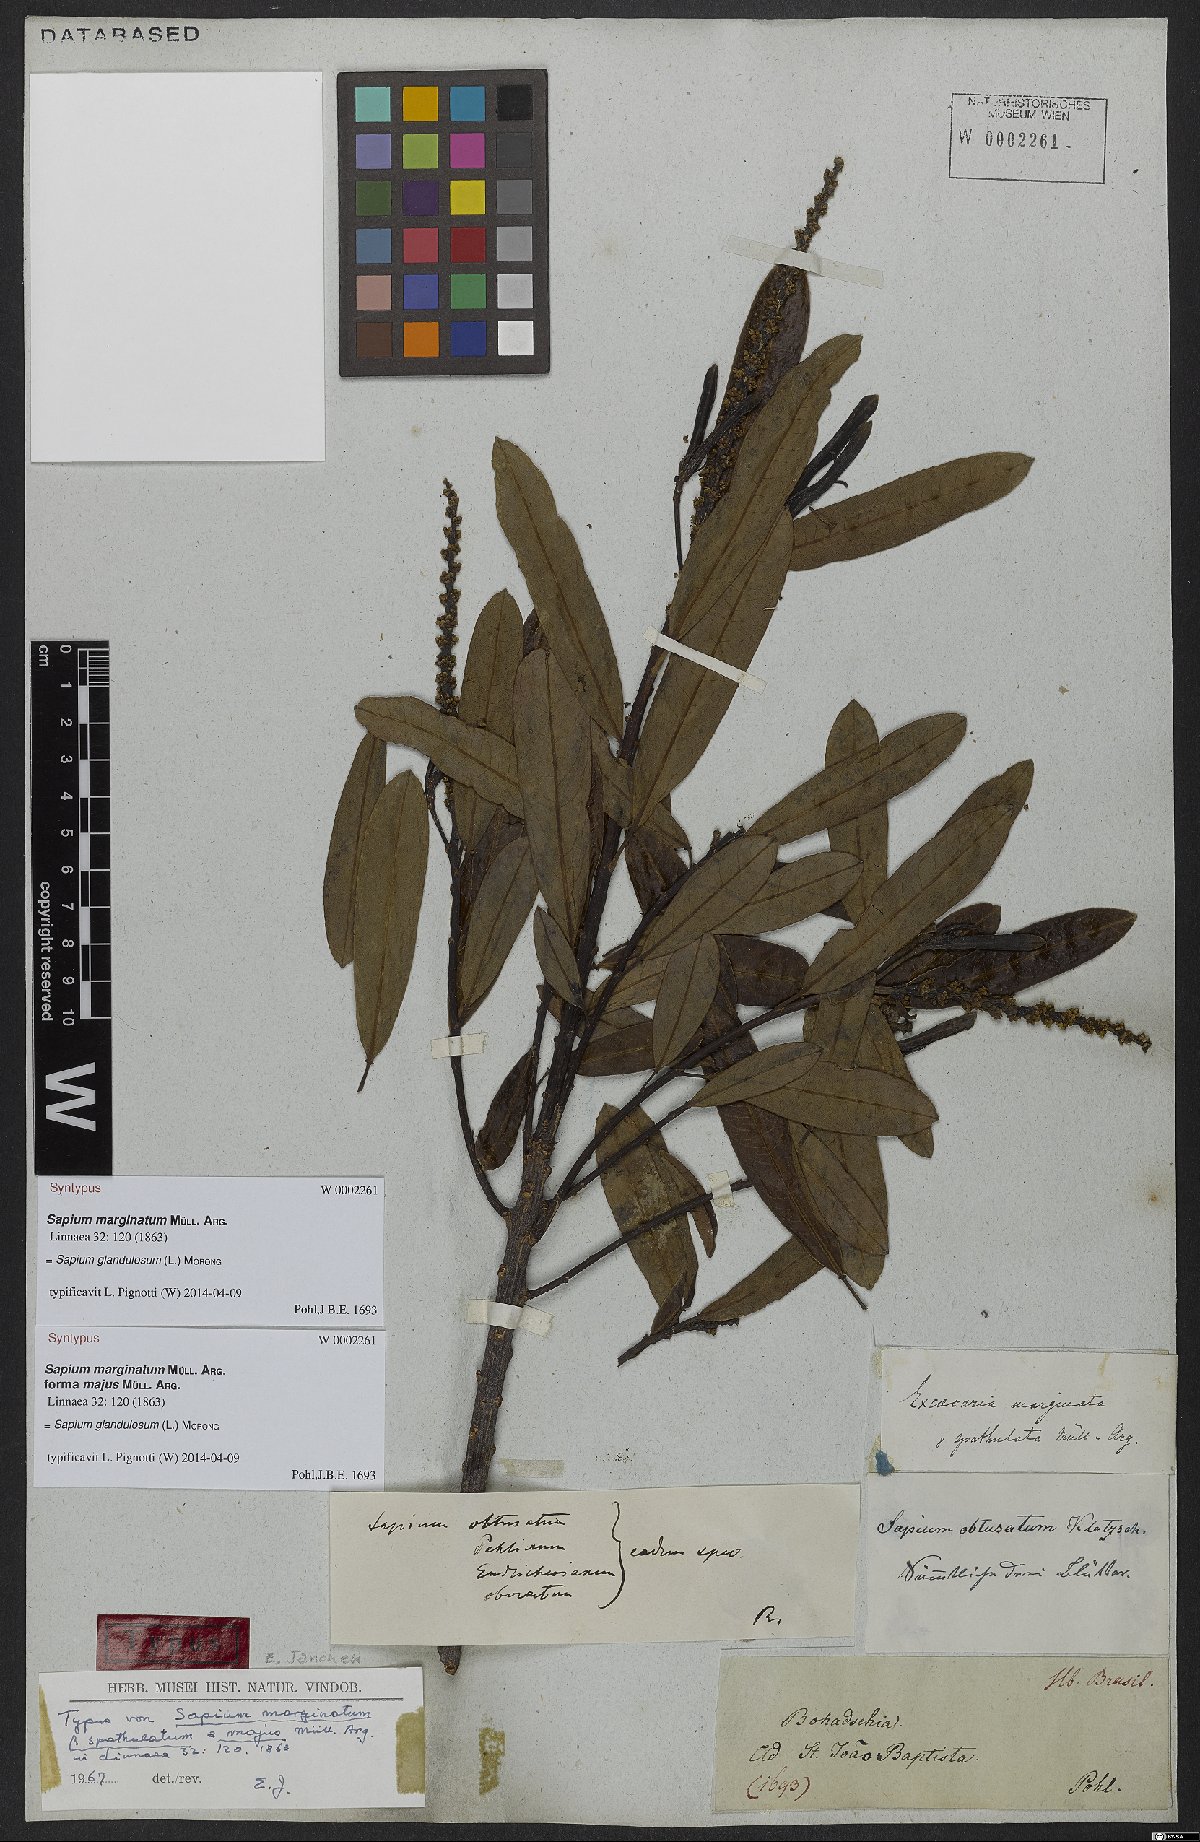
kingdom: Plantae
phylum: Tracheophyta
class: Magnoliopsida
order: Malpighiales
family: Euphorbiaceae
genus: Sapium
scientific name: Sapium glandulosum
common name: Milktree
